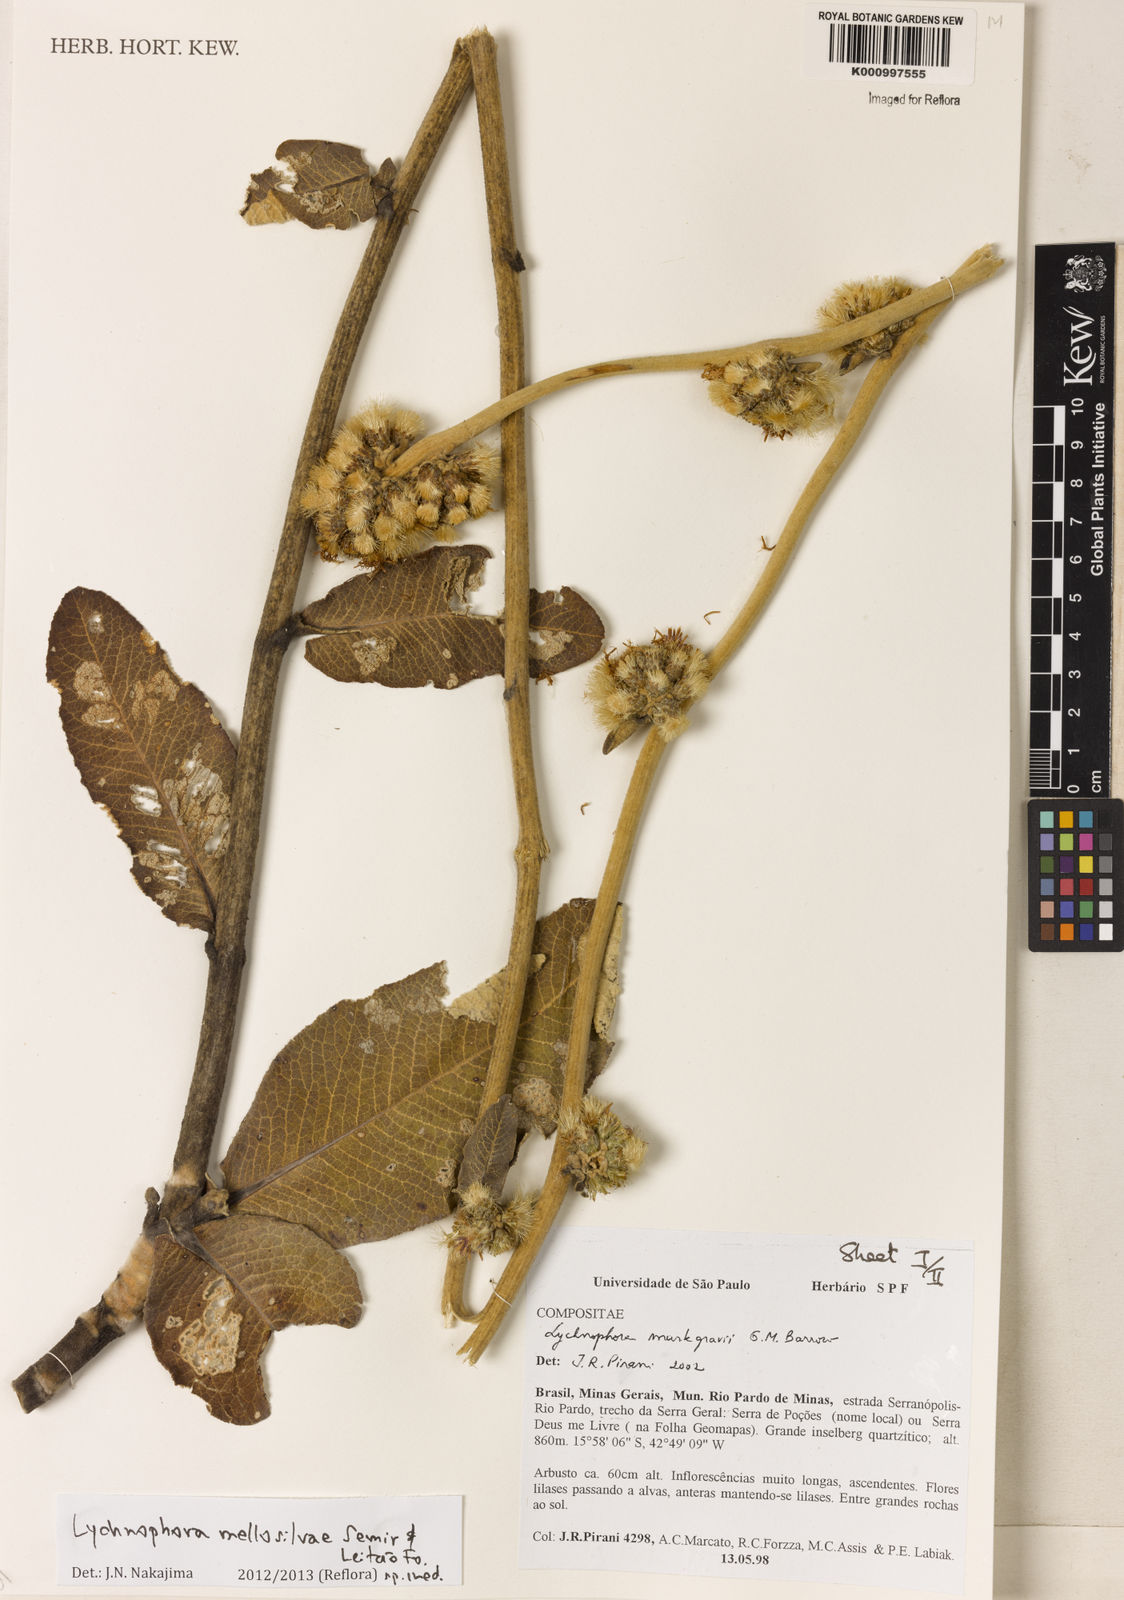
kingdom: Plantae
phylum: Tracheophyta
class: Magnoliopsida
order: Asterales
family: Asteraceae
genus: Lychnophora
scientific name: Lychnophora
